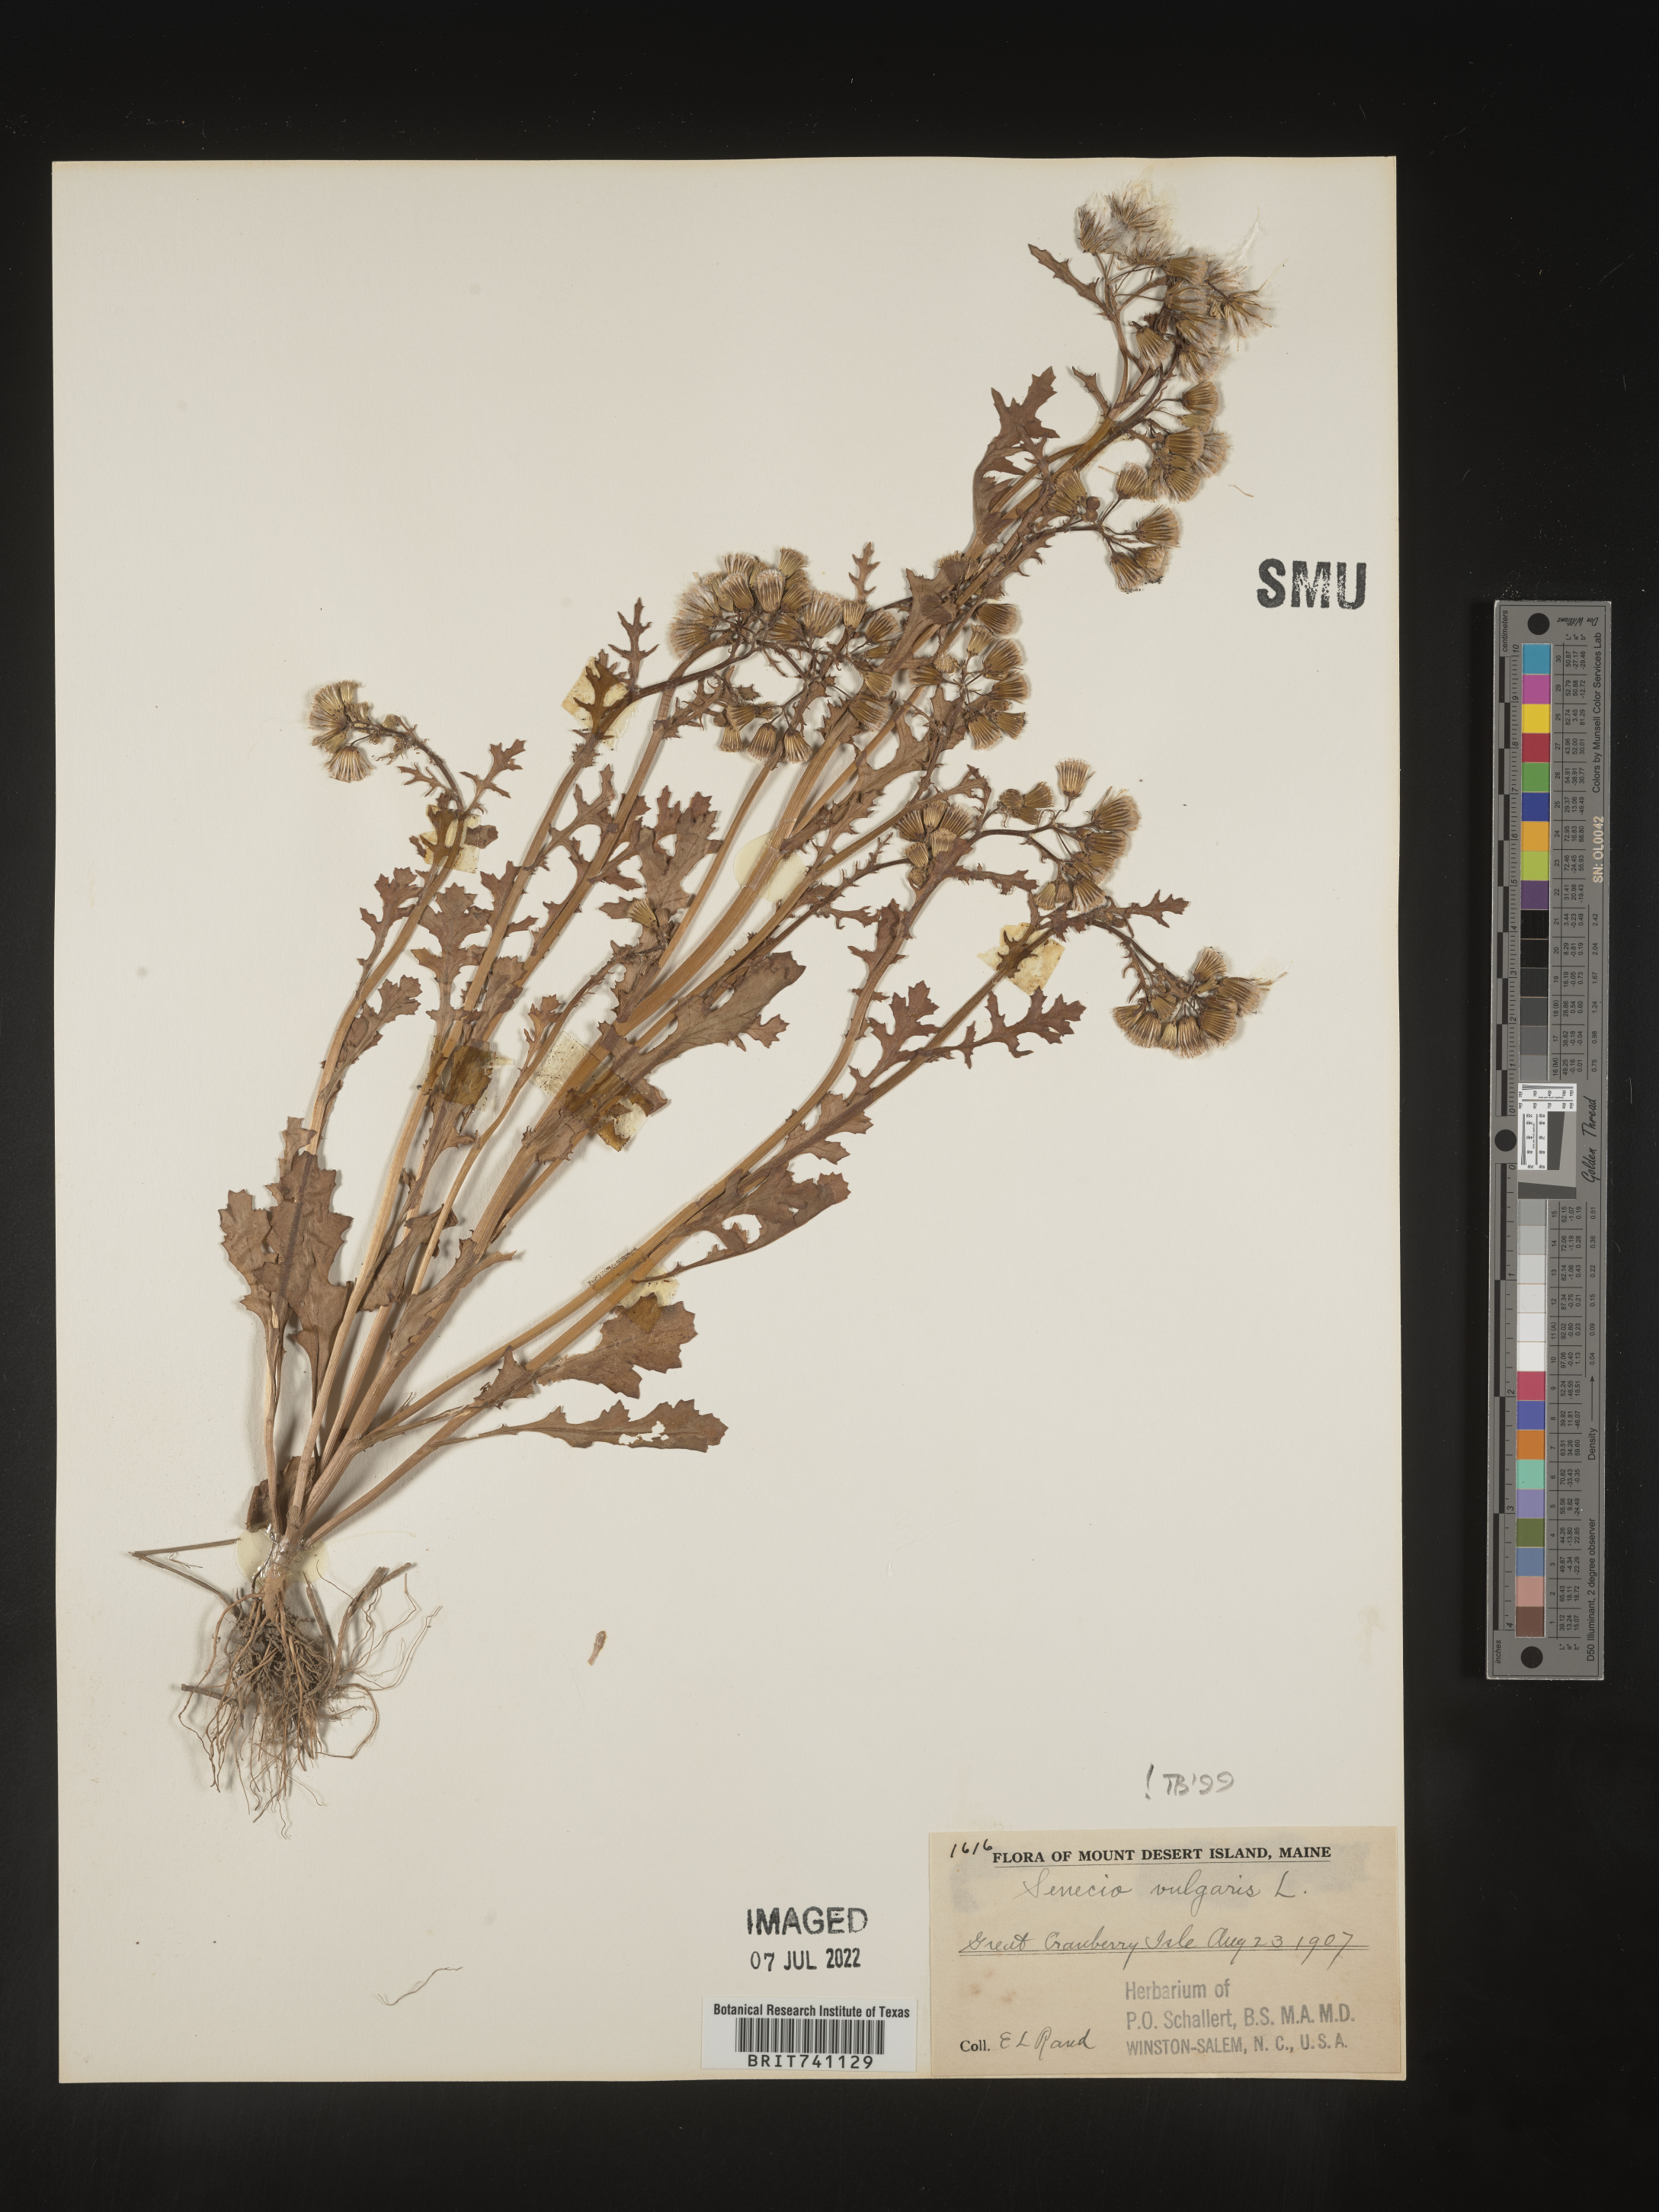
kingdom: Plantae
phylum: Tracheophyta
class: Magnoliopsida
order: Asterales
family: Asteraceae
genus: Senecio
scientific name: Senecio vulgaris
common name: Old-man-in-the-spring
